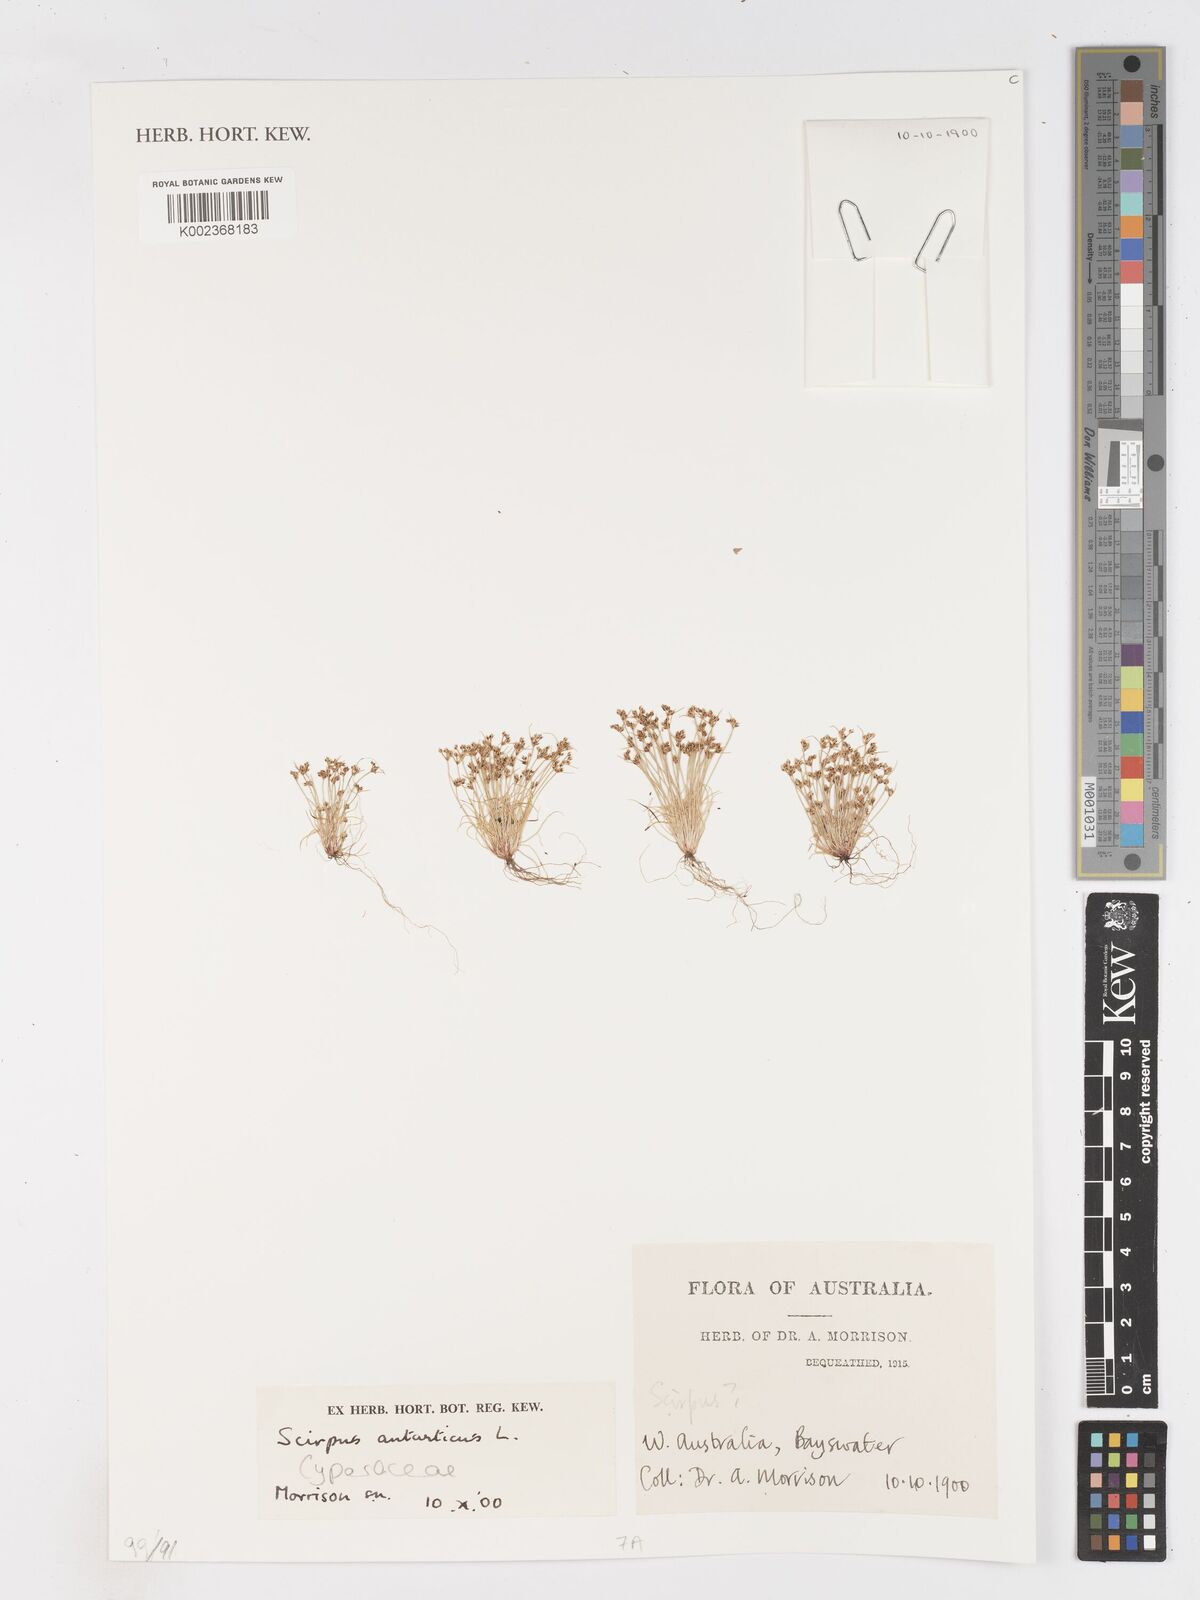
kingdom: Plantae
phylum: Tracheophyta
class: Liliopsida
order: Poales
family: Cyperaceae
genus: Isolepis
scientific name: Isolepis antarctica
